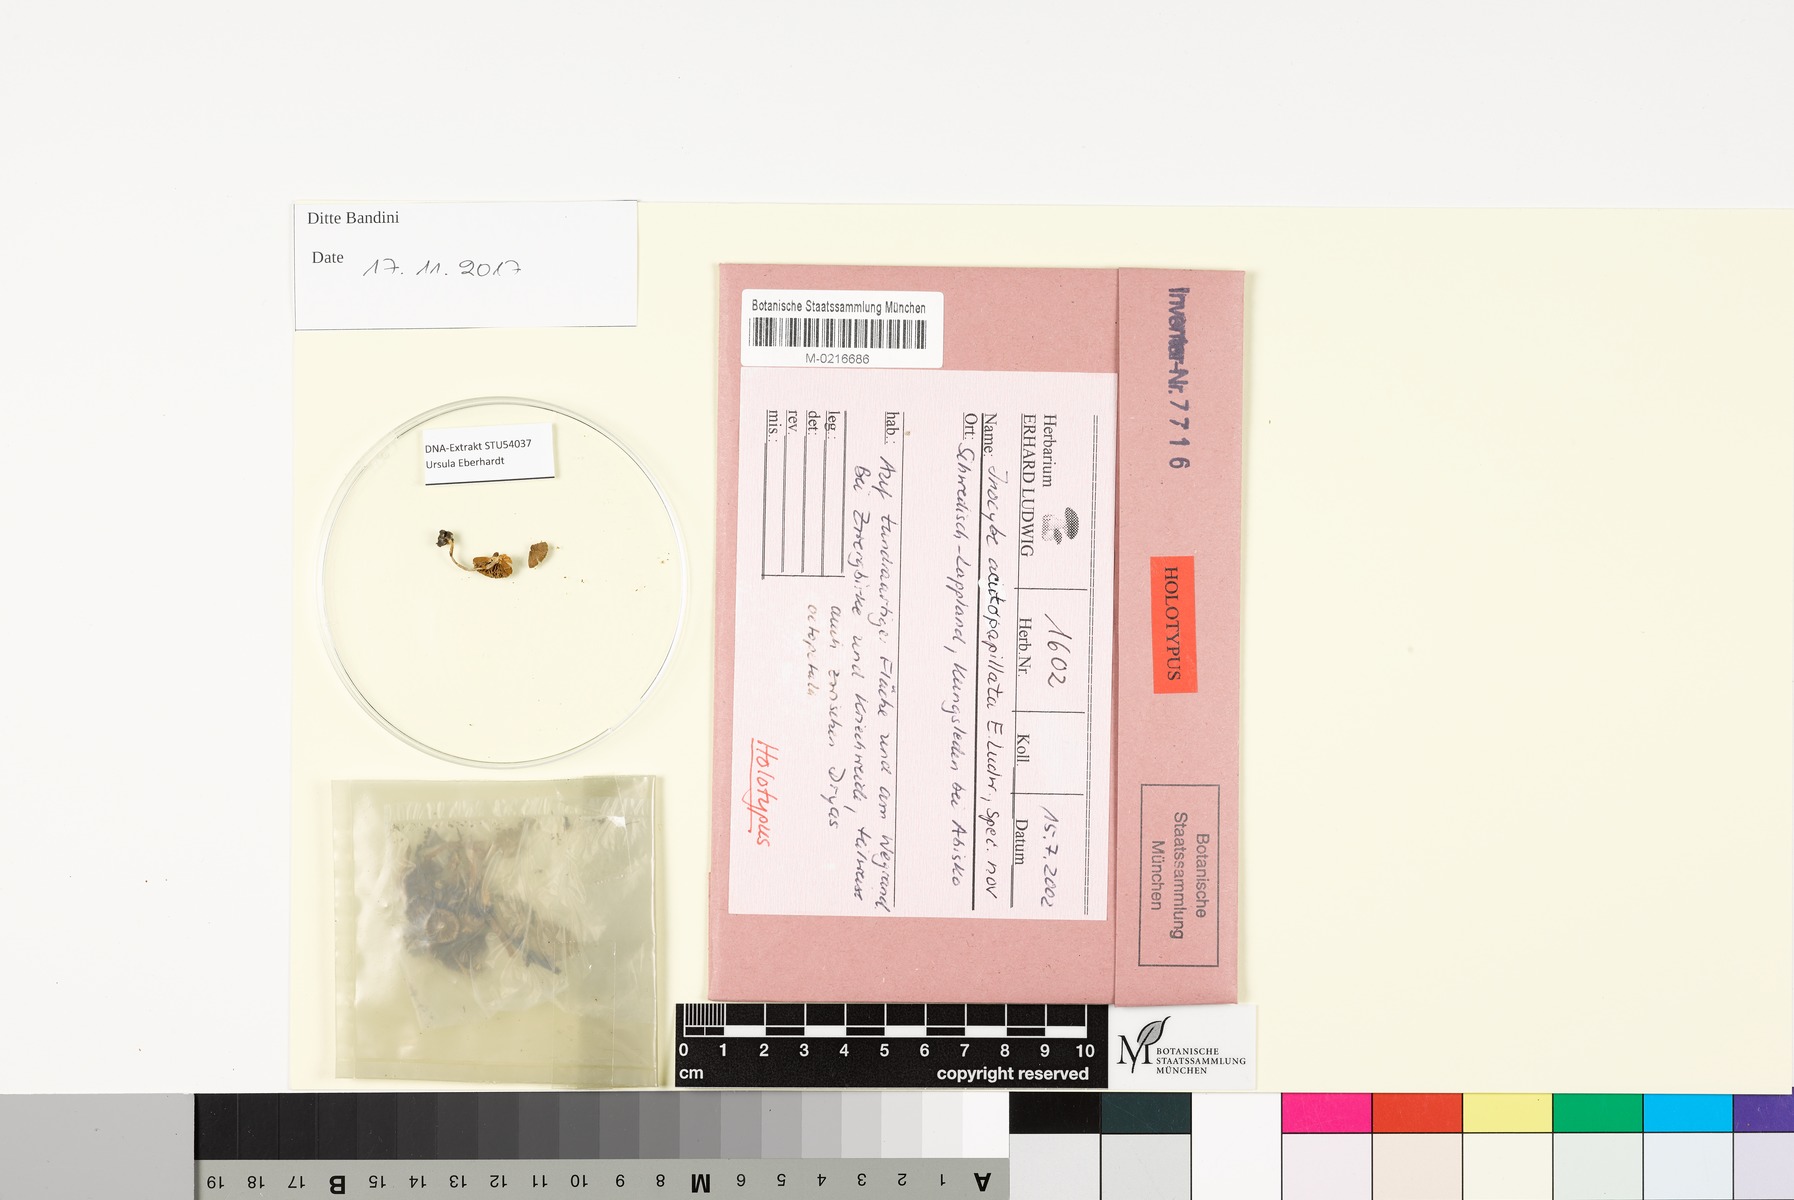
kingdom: Fungi
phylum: Basidiomycota
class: Agaricomycetes
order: Agaricales
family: Inocybaceae
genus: Inocybe
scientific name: Inocybe acutopapillata
